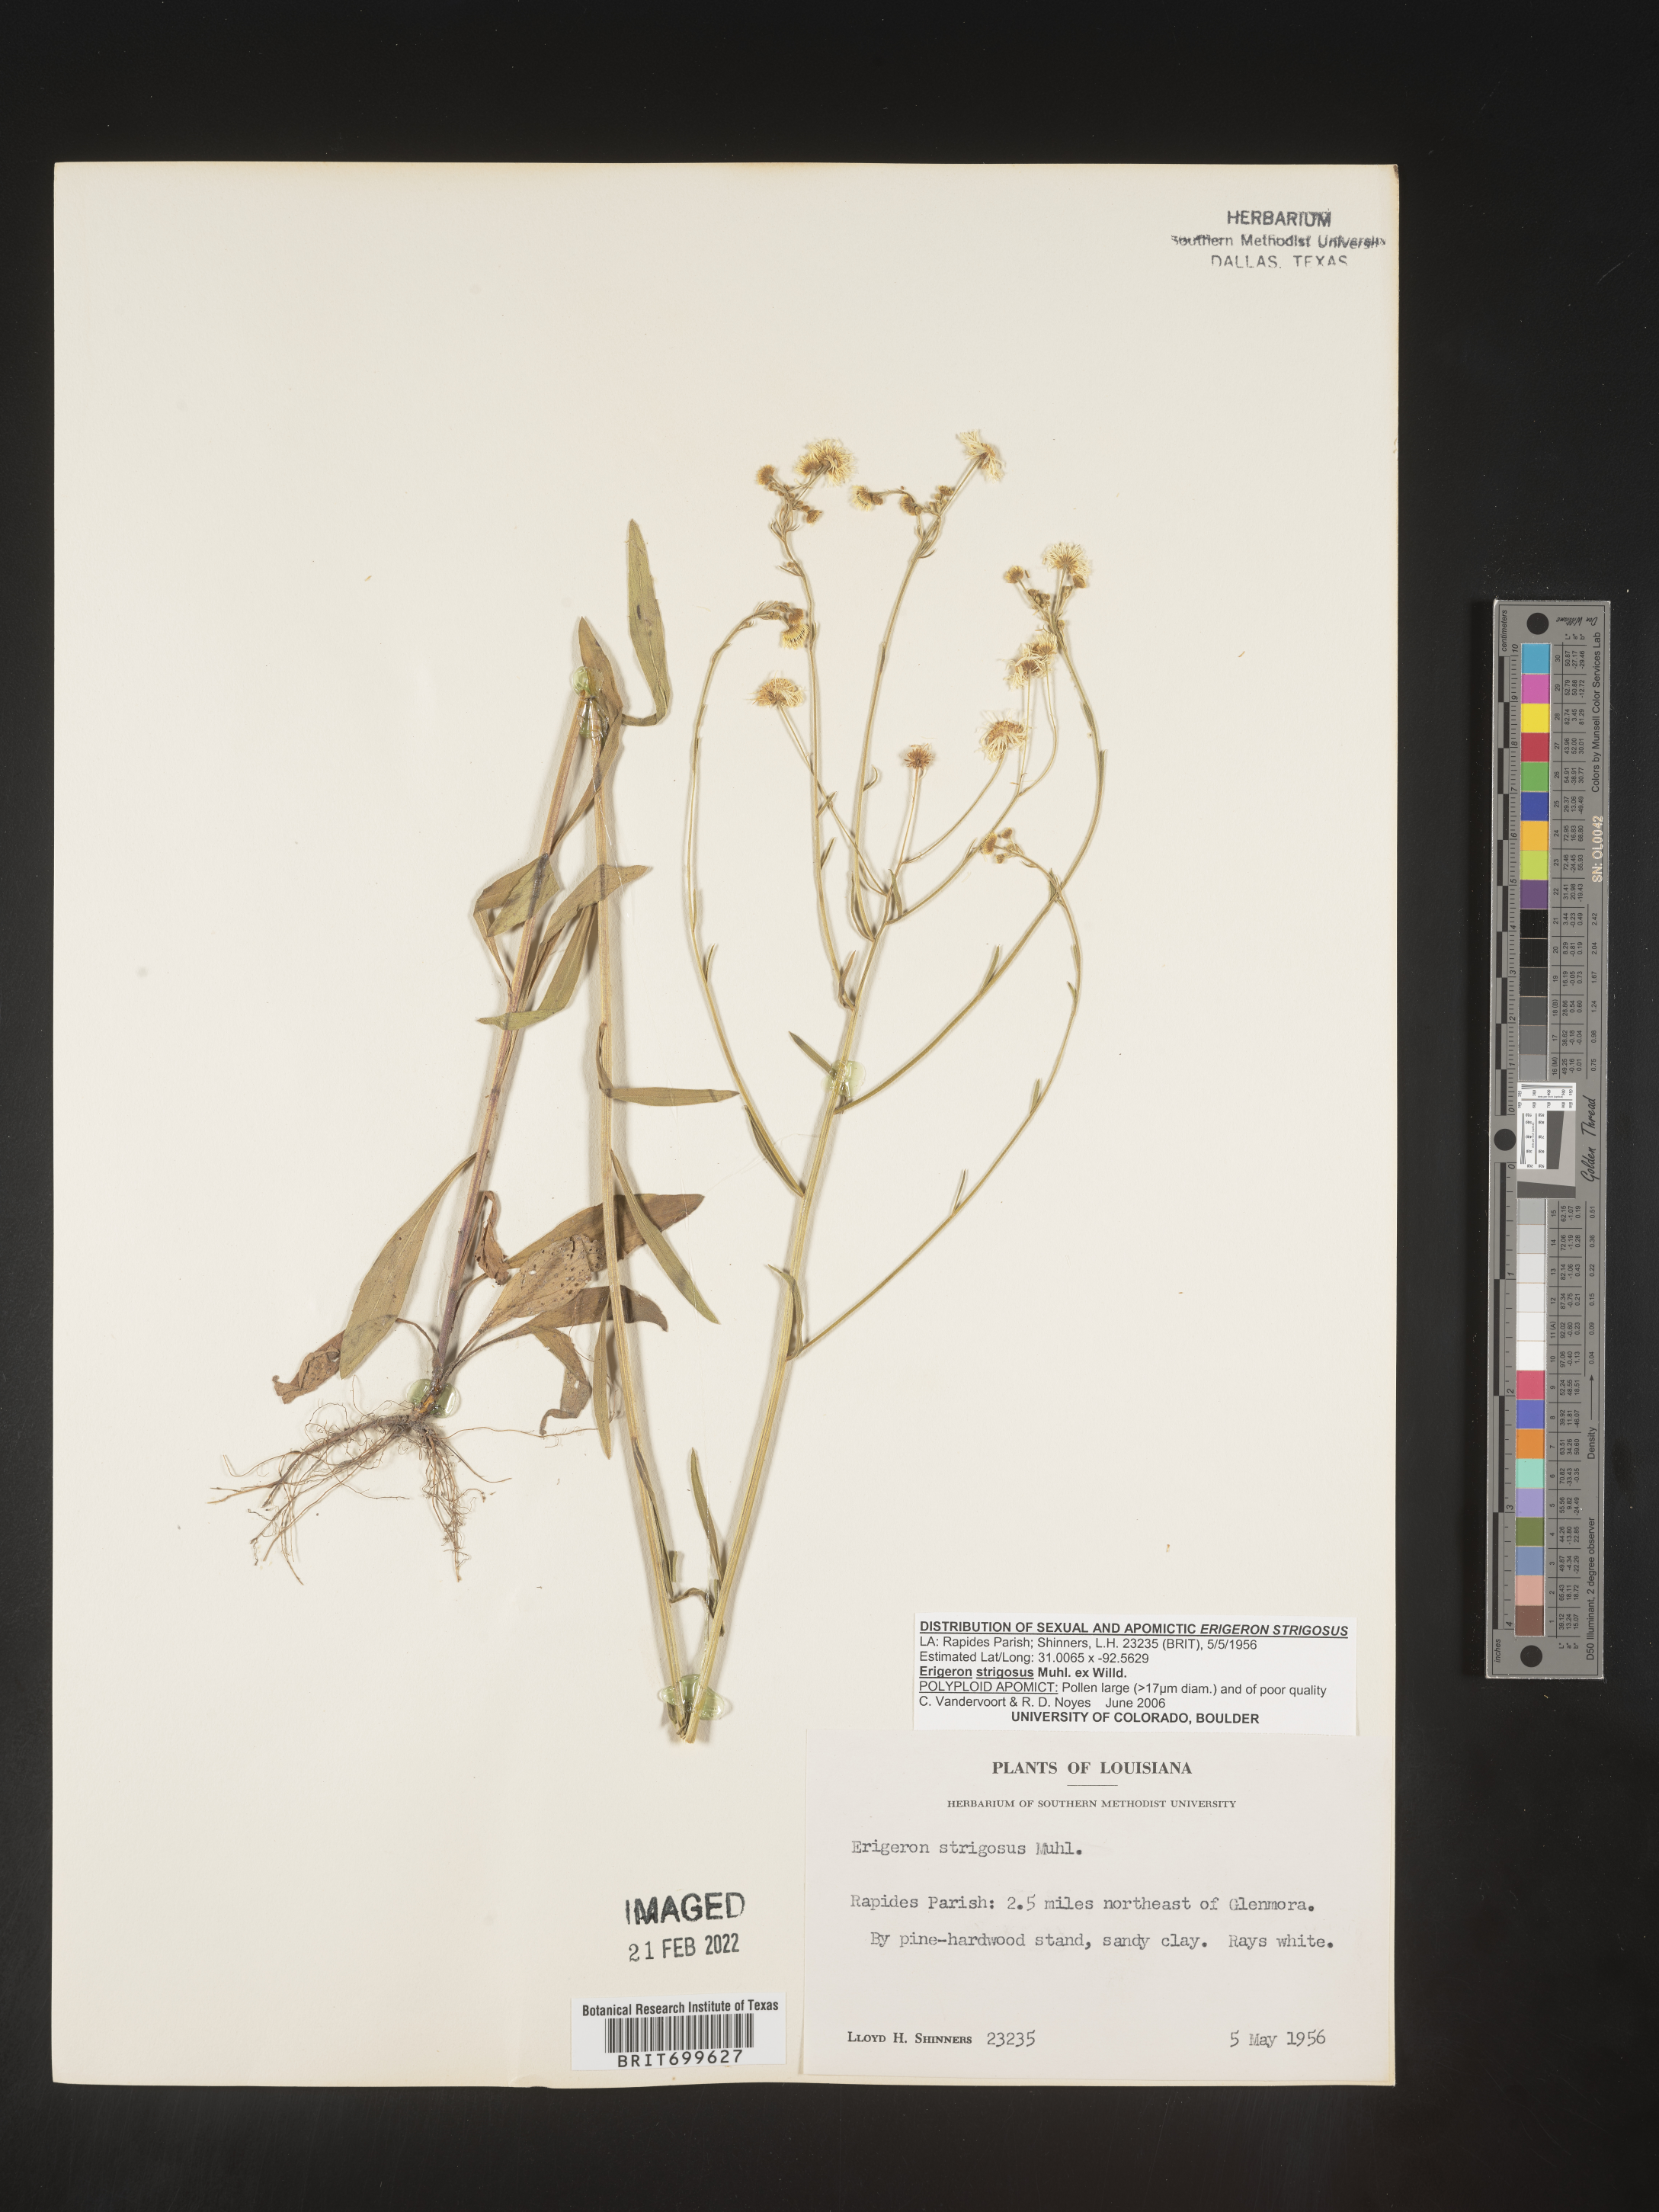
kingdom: Plantae
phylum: Tracheophyta
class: Magnoliopsida
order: Asterales
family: Asteraceae
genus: Erigeron
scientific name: Erigeron strigosus
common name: Common eastern fleabane
